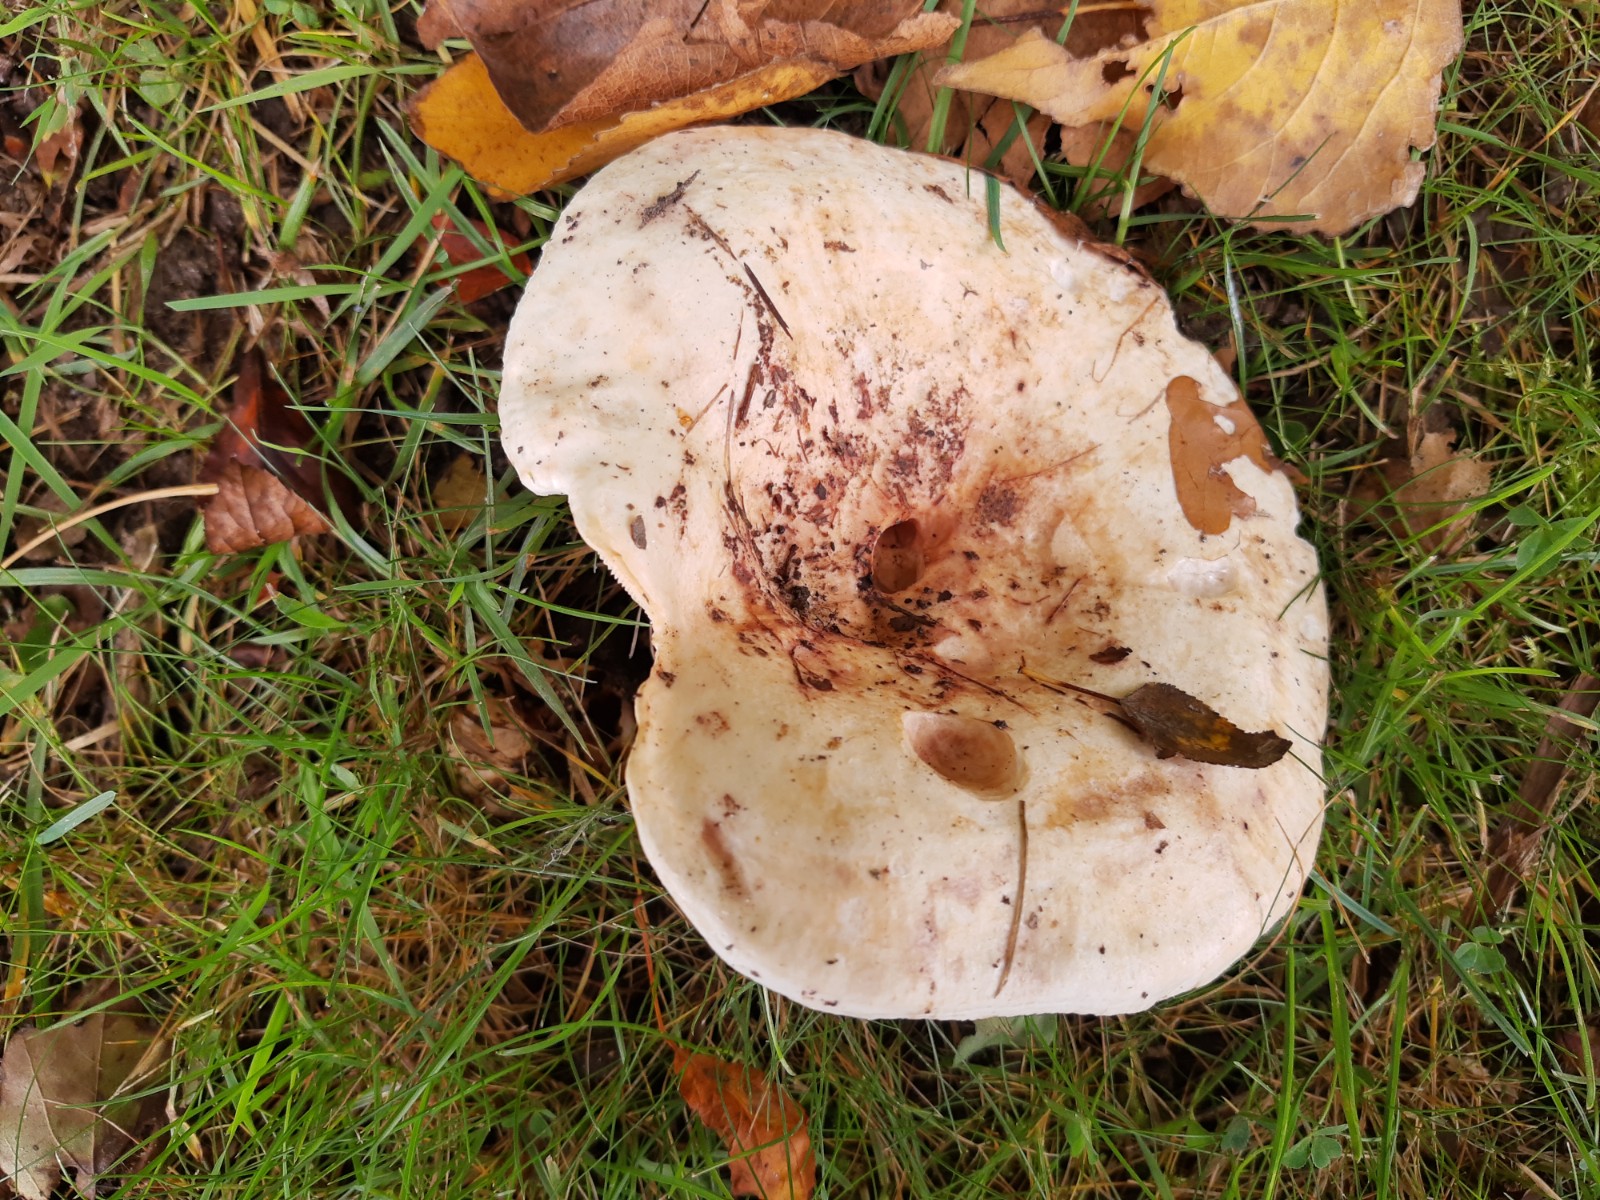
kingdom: Fungi
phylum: Basidiomycota
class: Agaricomycetes
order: Russulales
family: Russulaceae
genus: Lactarius
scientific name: Lactarius controversus
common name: rosabladet mælkehat
